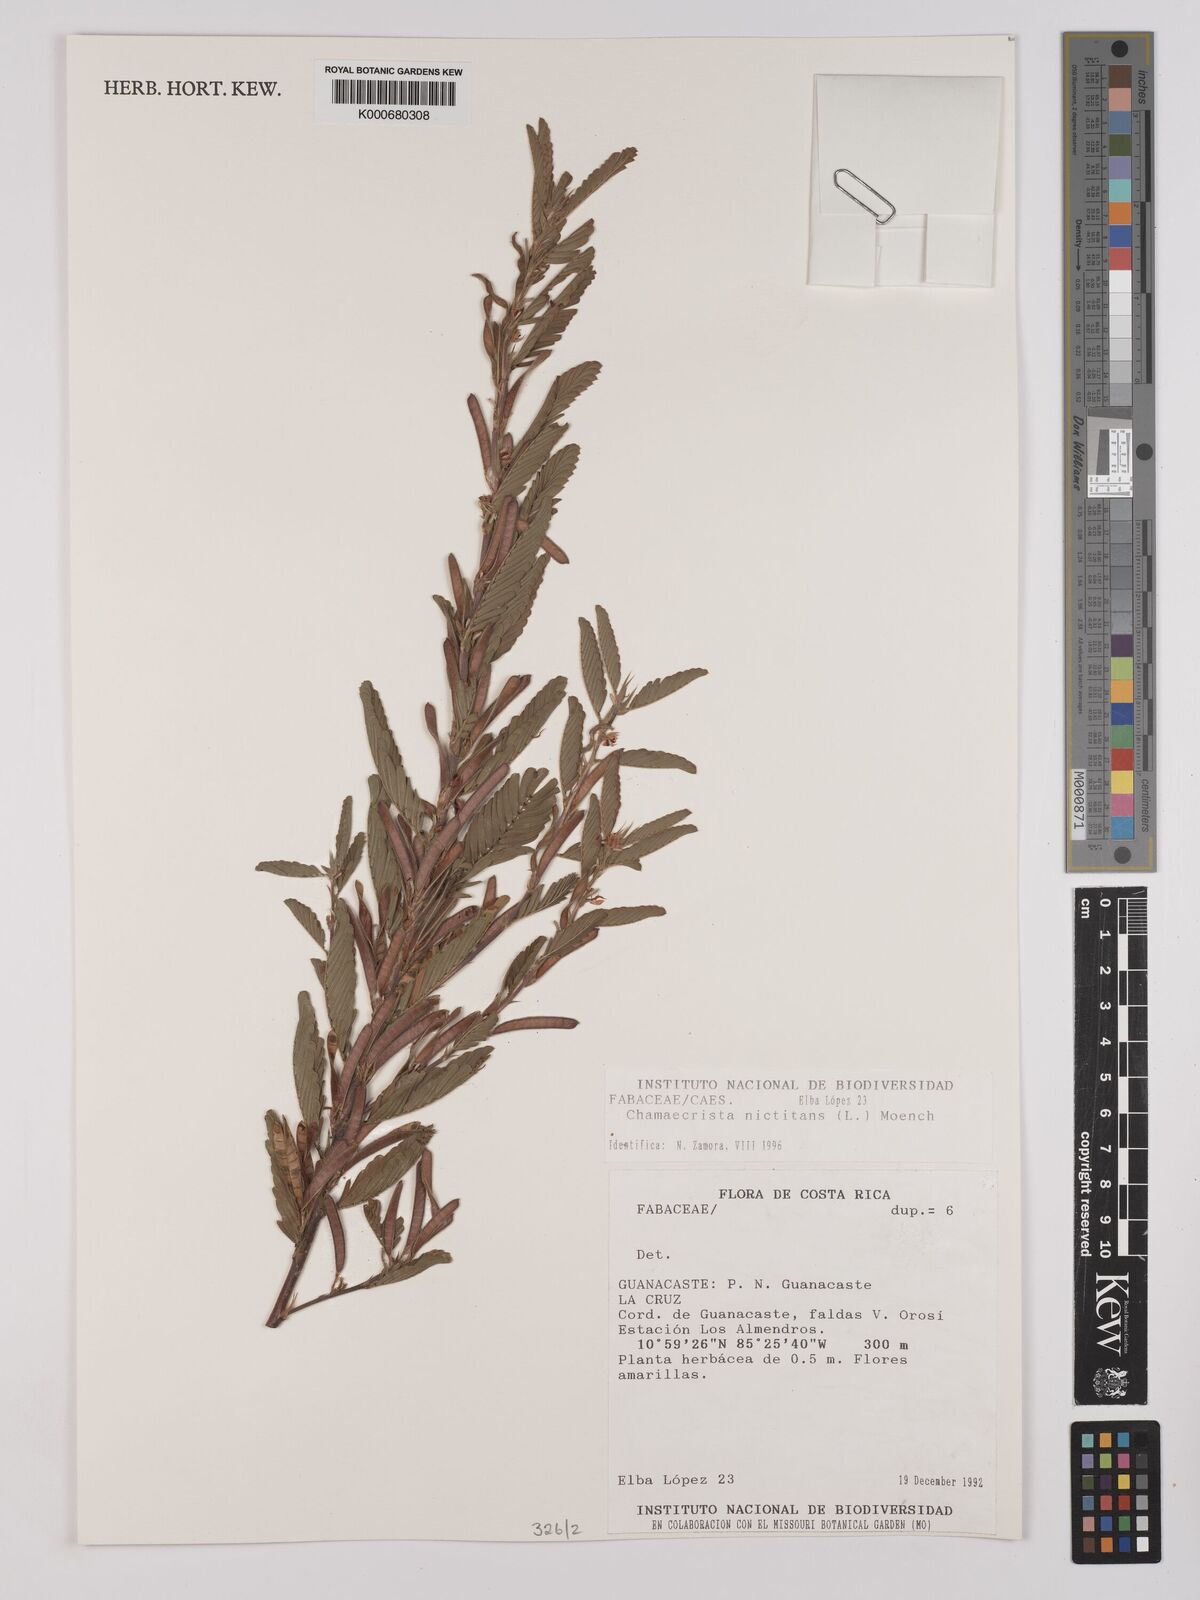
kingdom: Plantae
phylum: Tracheophyta
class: Magnoliopsida
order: Fabales
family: Fabaceae
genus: Chamaecrista
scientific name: Chamaecrista nictitans
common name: Sensitive cassia
